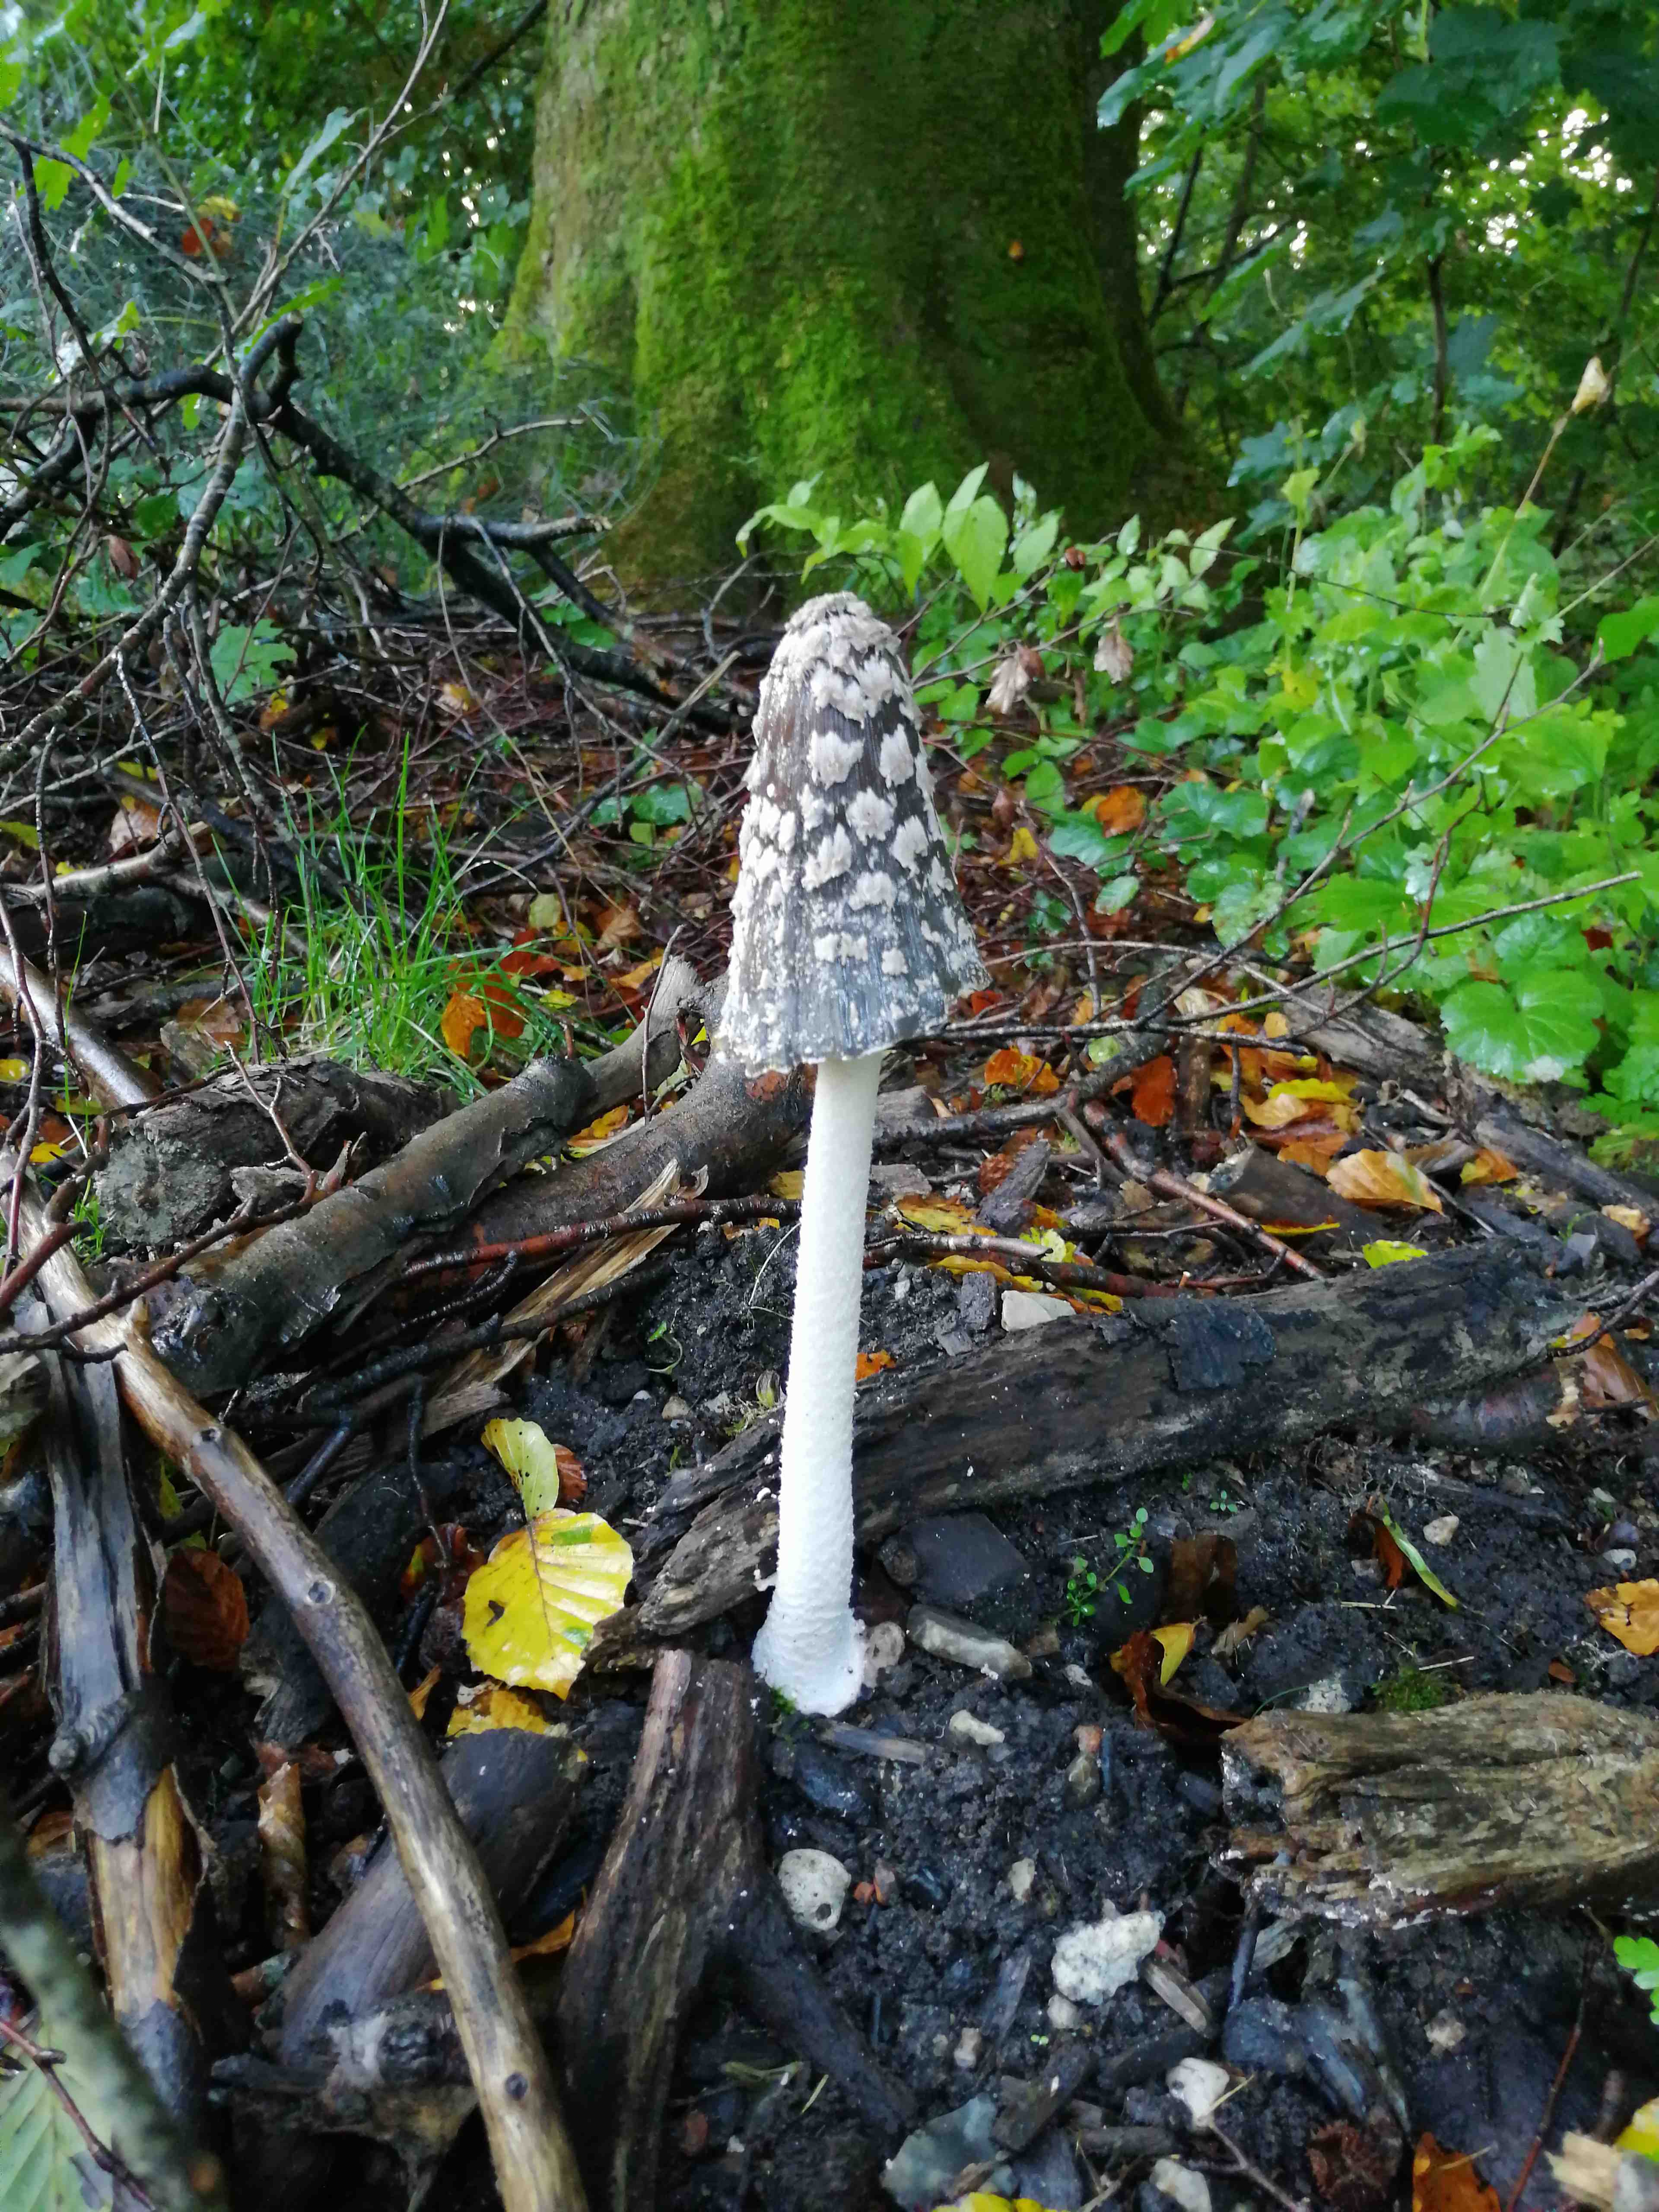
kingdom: Fungi
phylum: Basidiomycota
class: Agaricomycetes
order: Agaricales
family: Psathyrellaceae
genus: Coprinopsis
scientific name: Coprinopsis picacea
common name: skade-blækhat
